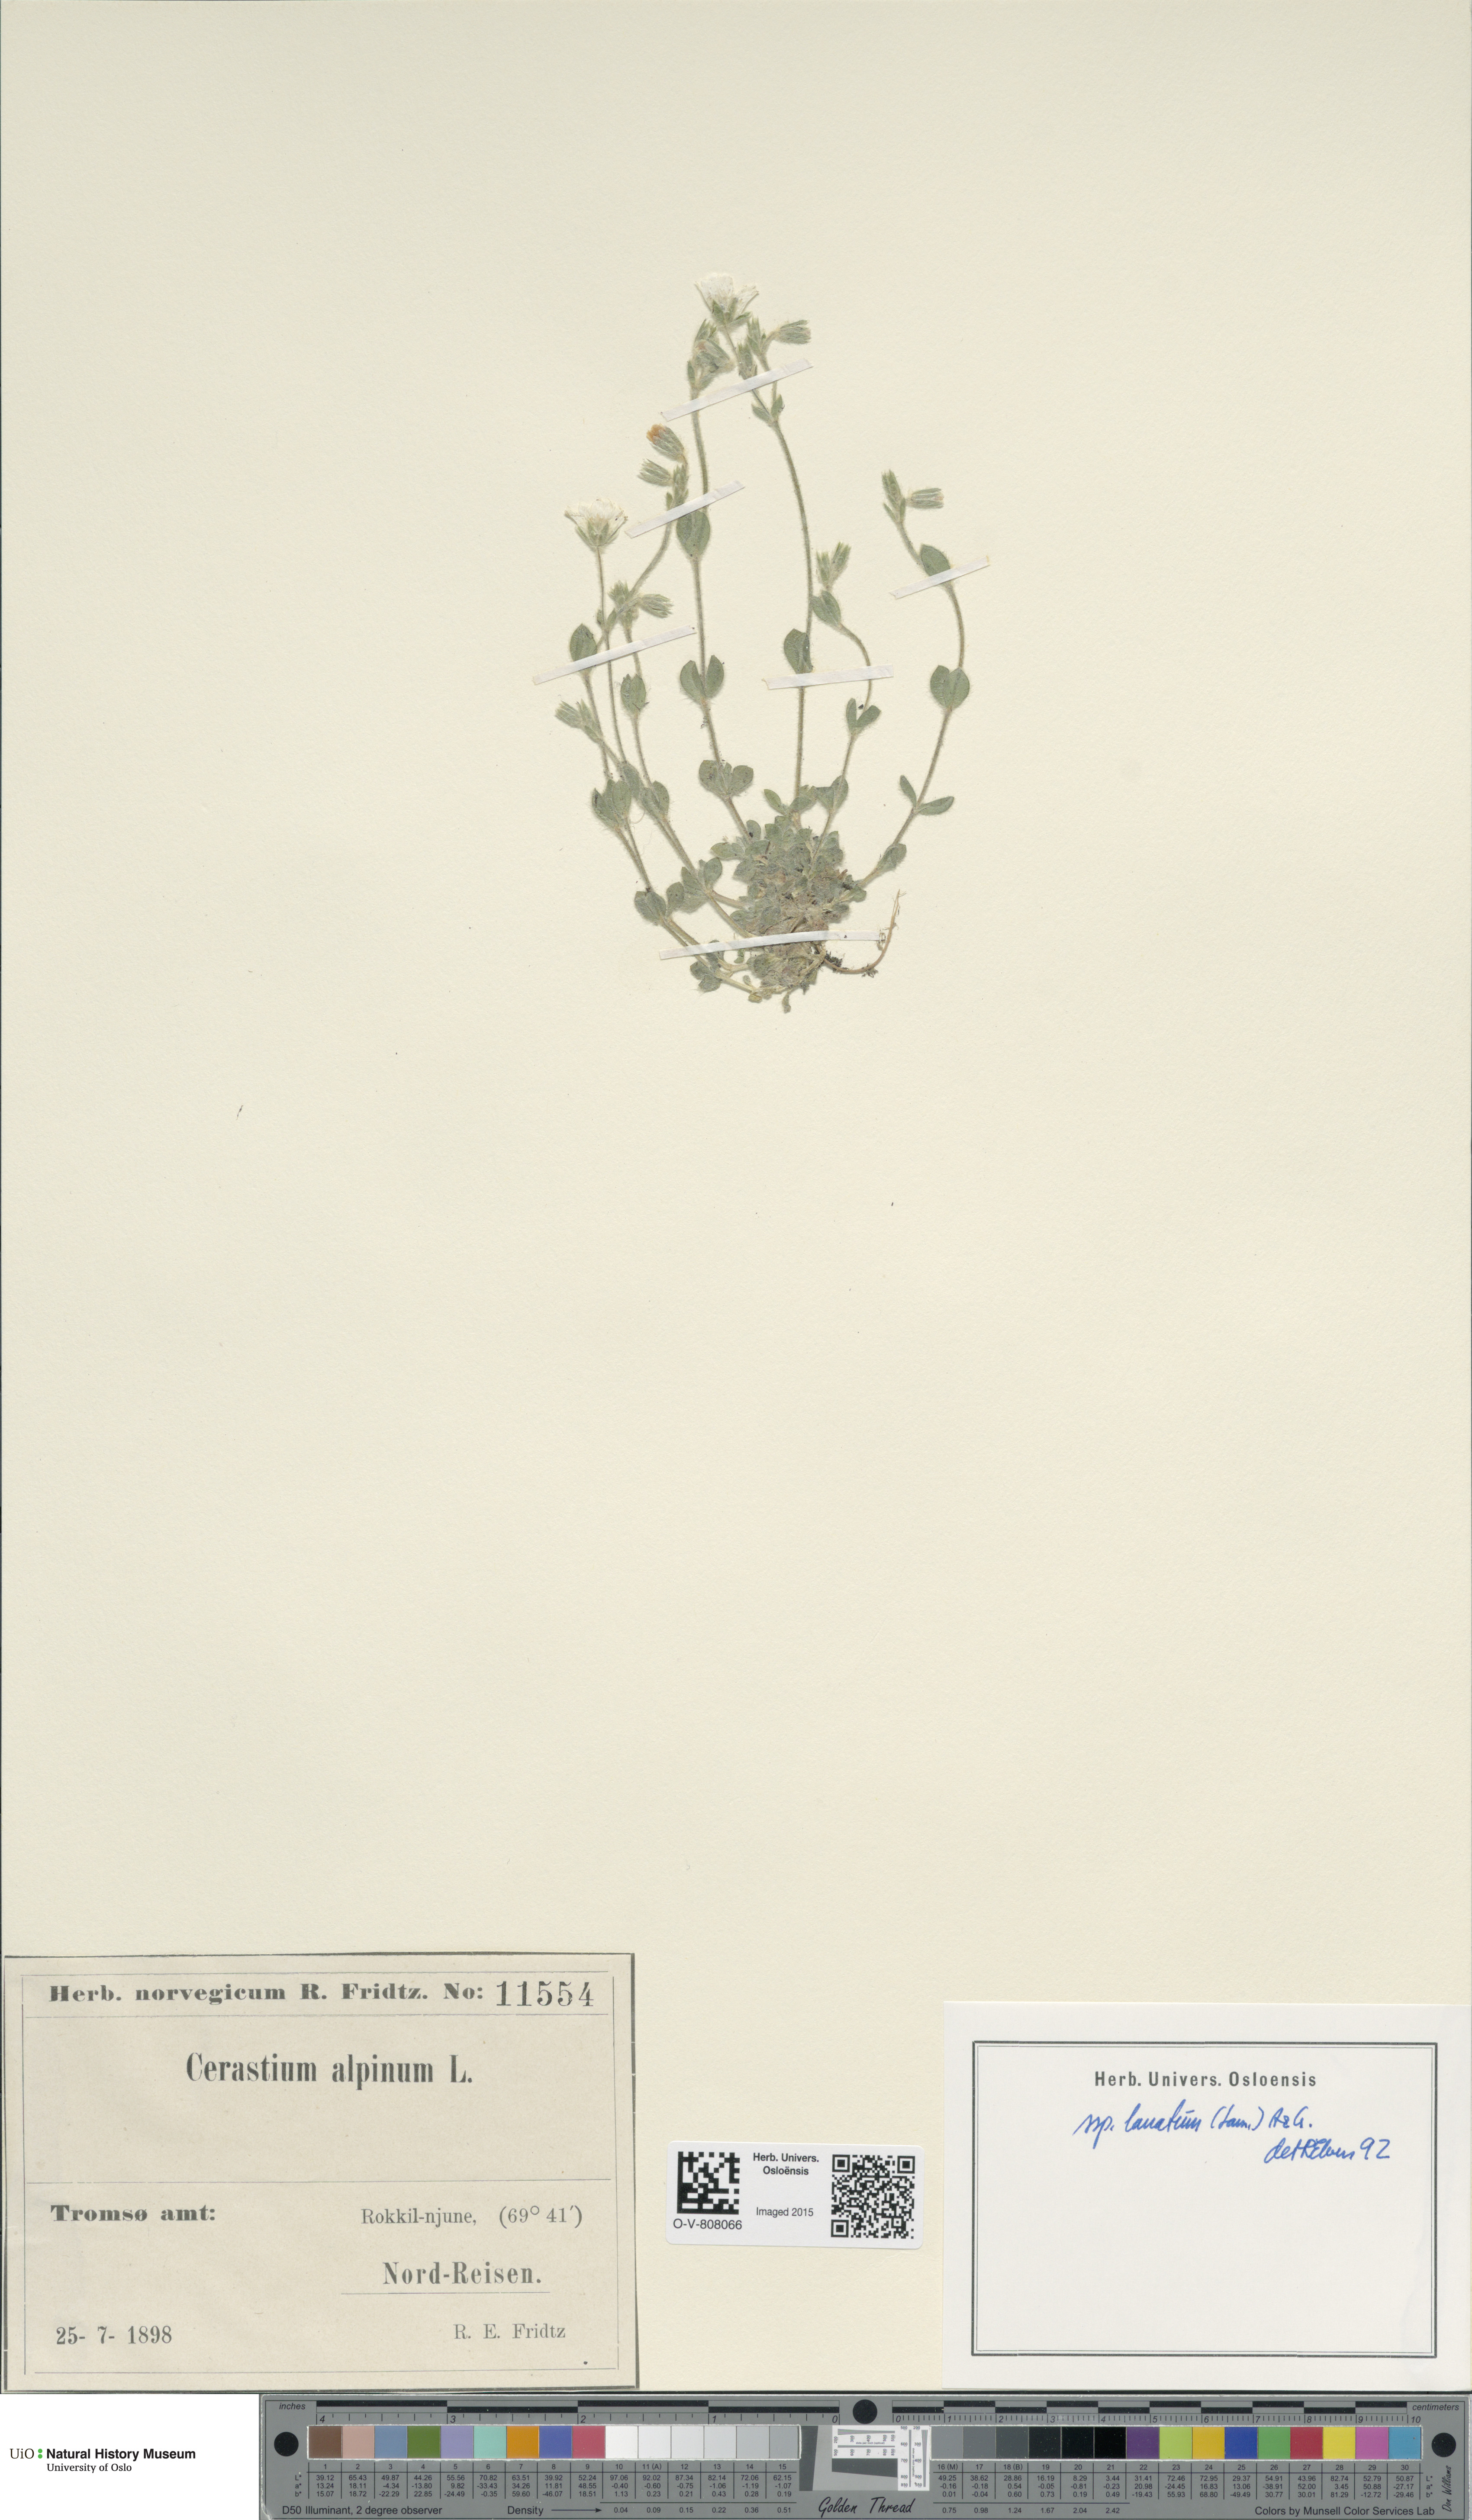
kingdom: Plantae
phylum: Tracheophyta
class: Magnoliopsida
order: Caryophyllales
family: Caryophyllaceae
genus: Cerastium
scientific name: Cerastium alpinum
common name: Alpine mouse-ear
